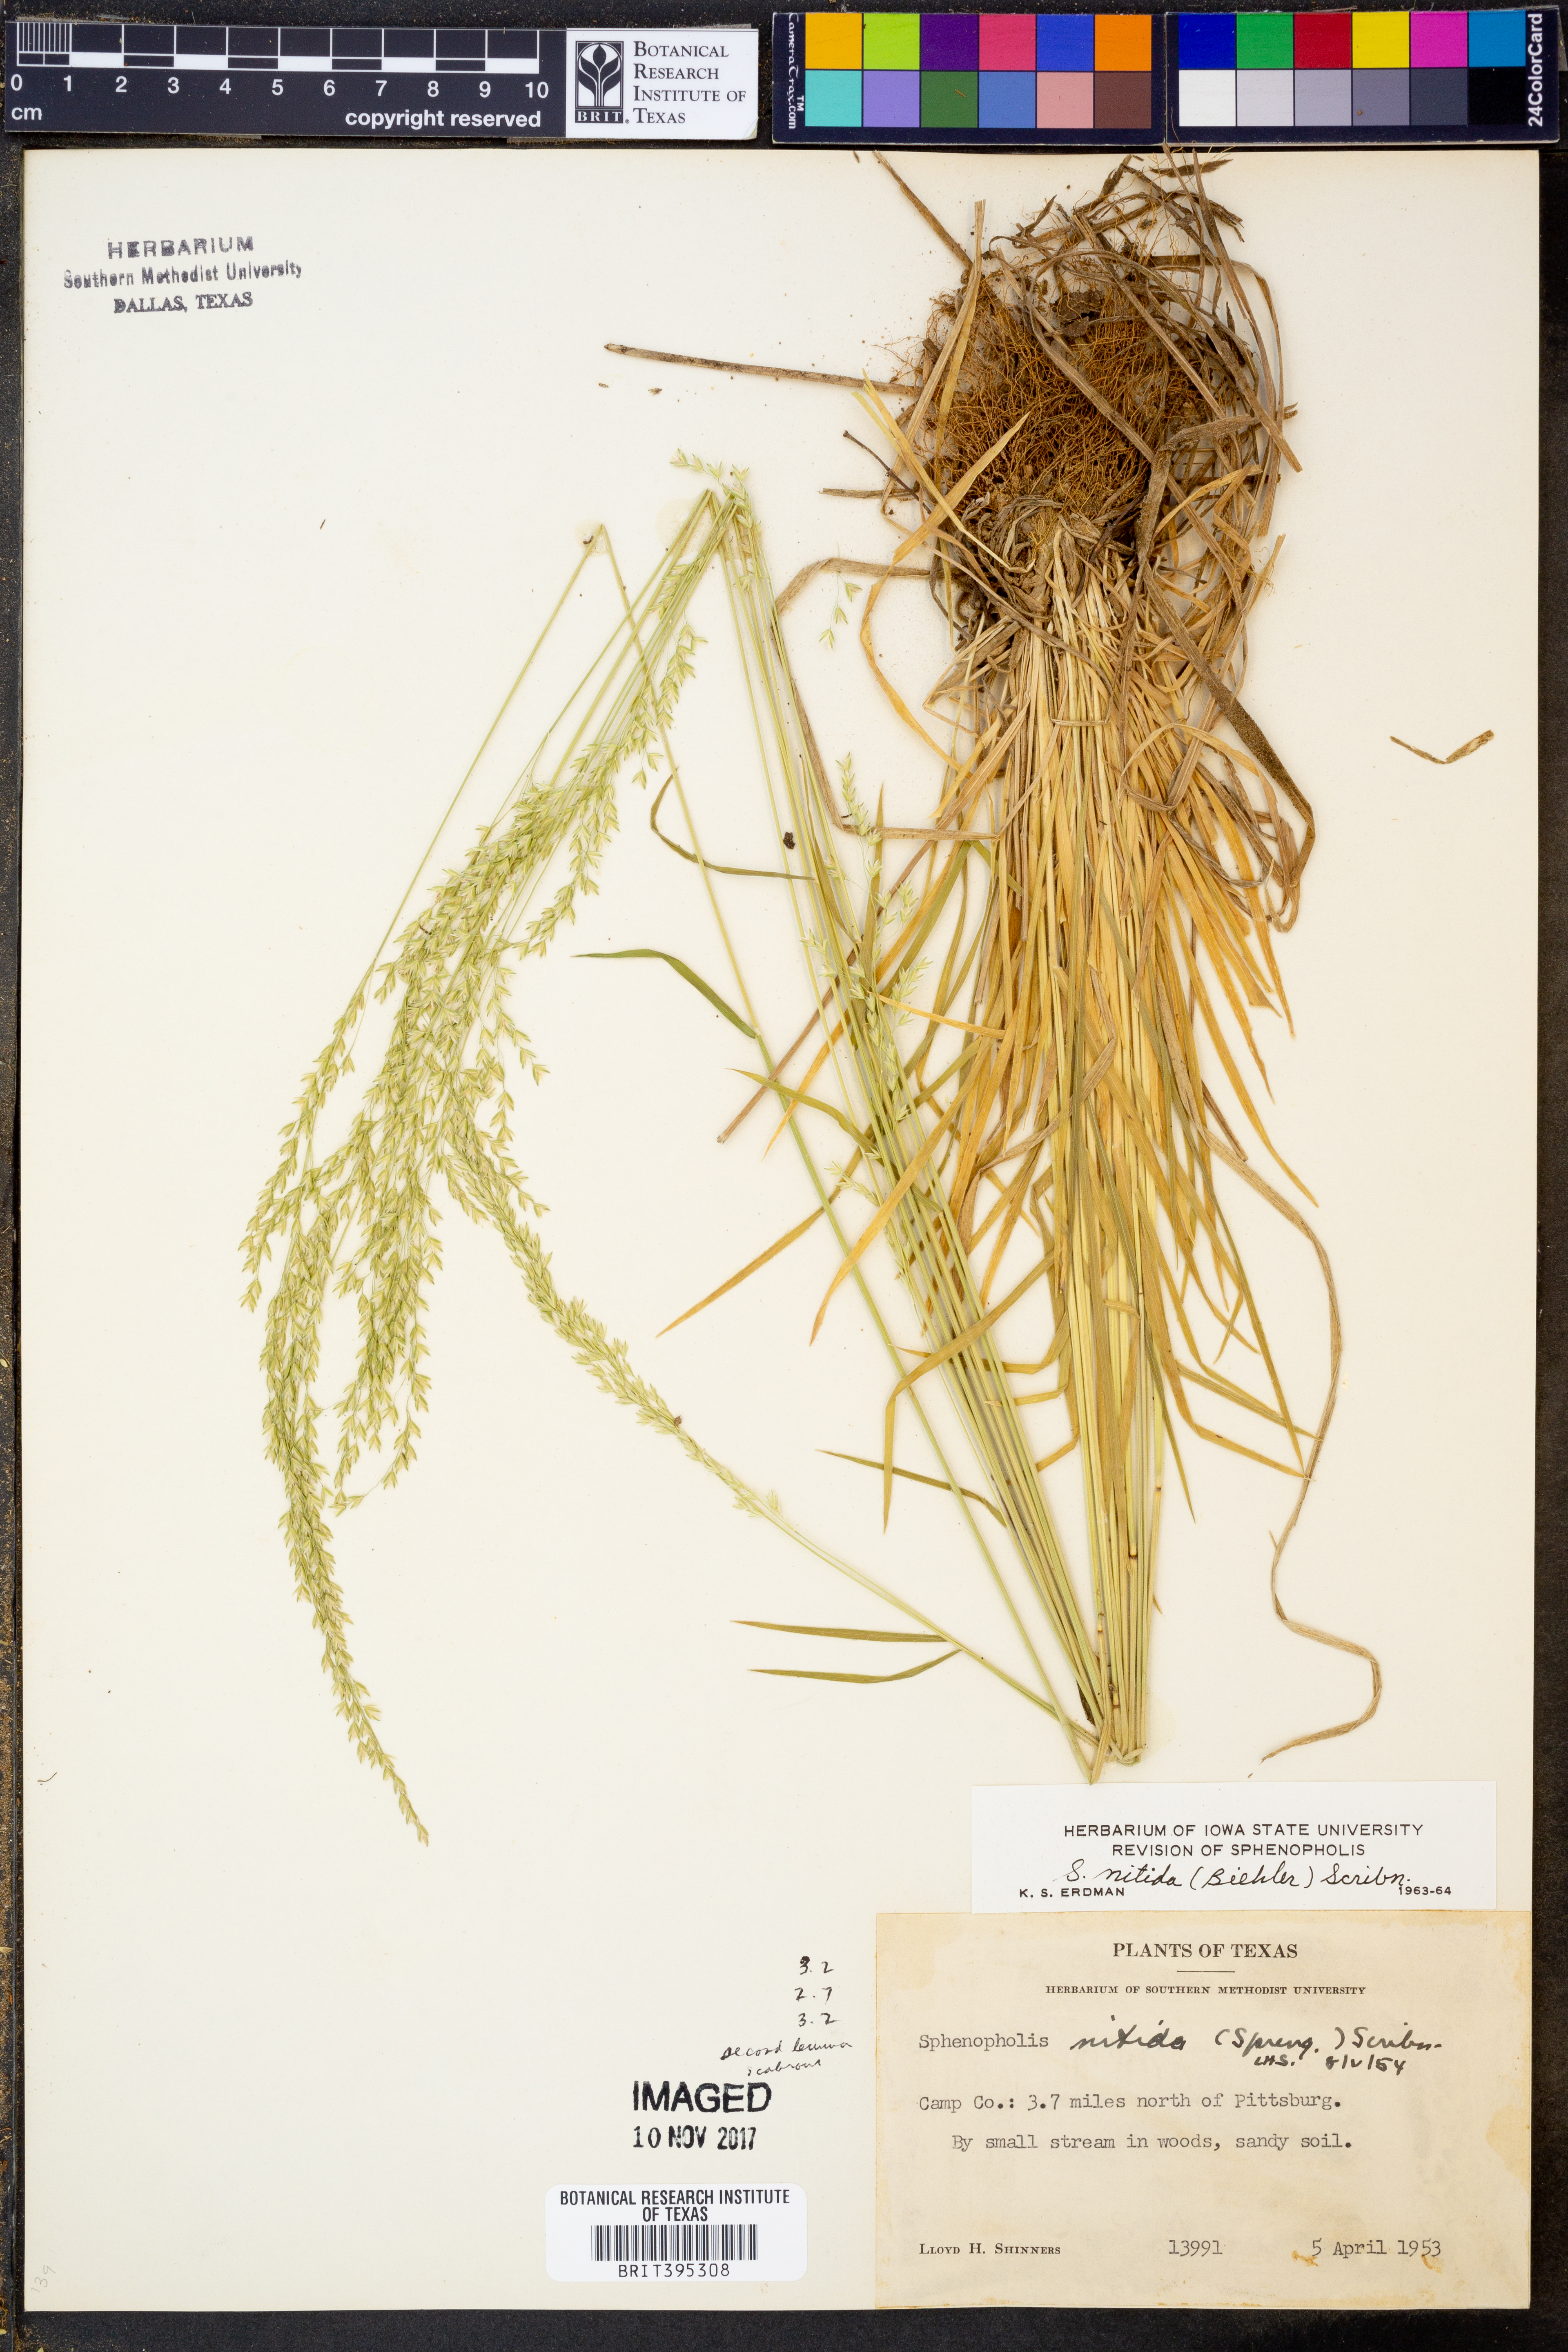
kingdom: Plantae
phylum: Tracheophyta
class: Liliopsida
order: Poales
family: Poaceae
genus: Sphenopholis
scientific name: Sphenopholis nitida
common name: Shiny wedgegrass
